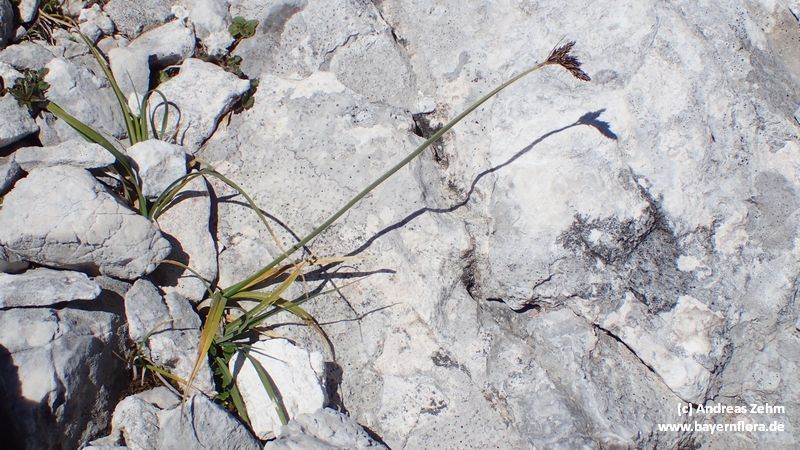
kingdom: Plantae
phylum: Tracheophyta
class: Liliopsida
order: Poales
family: Cyperaceae
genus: Carex
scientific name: Carex parviflora
